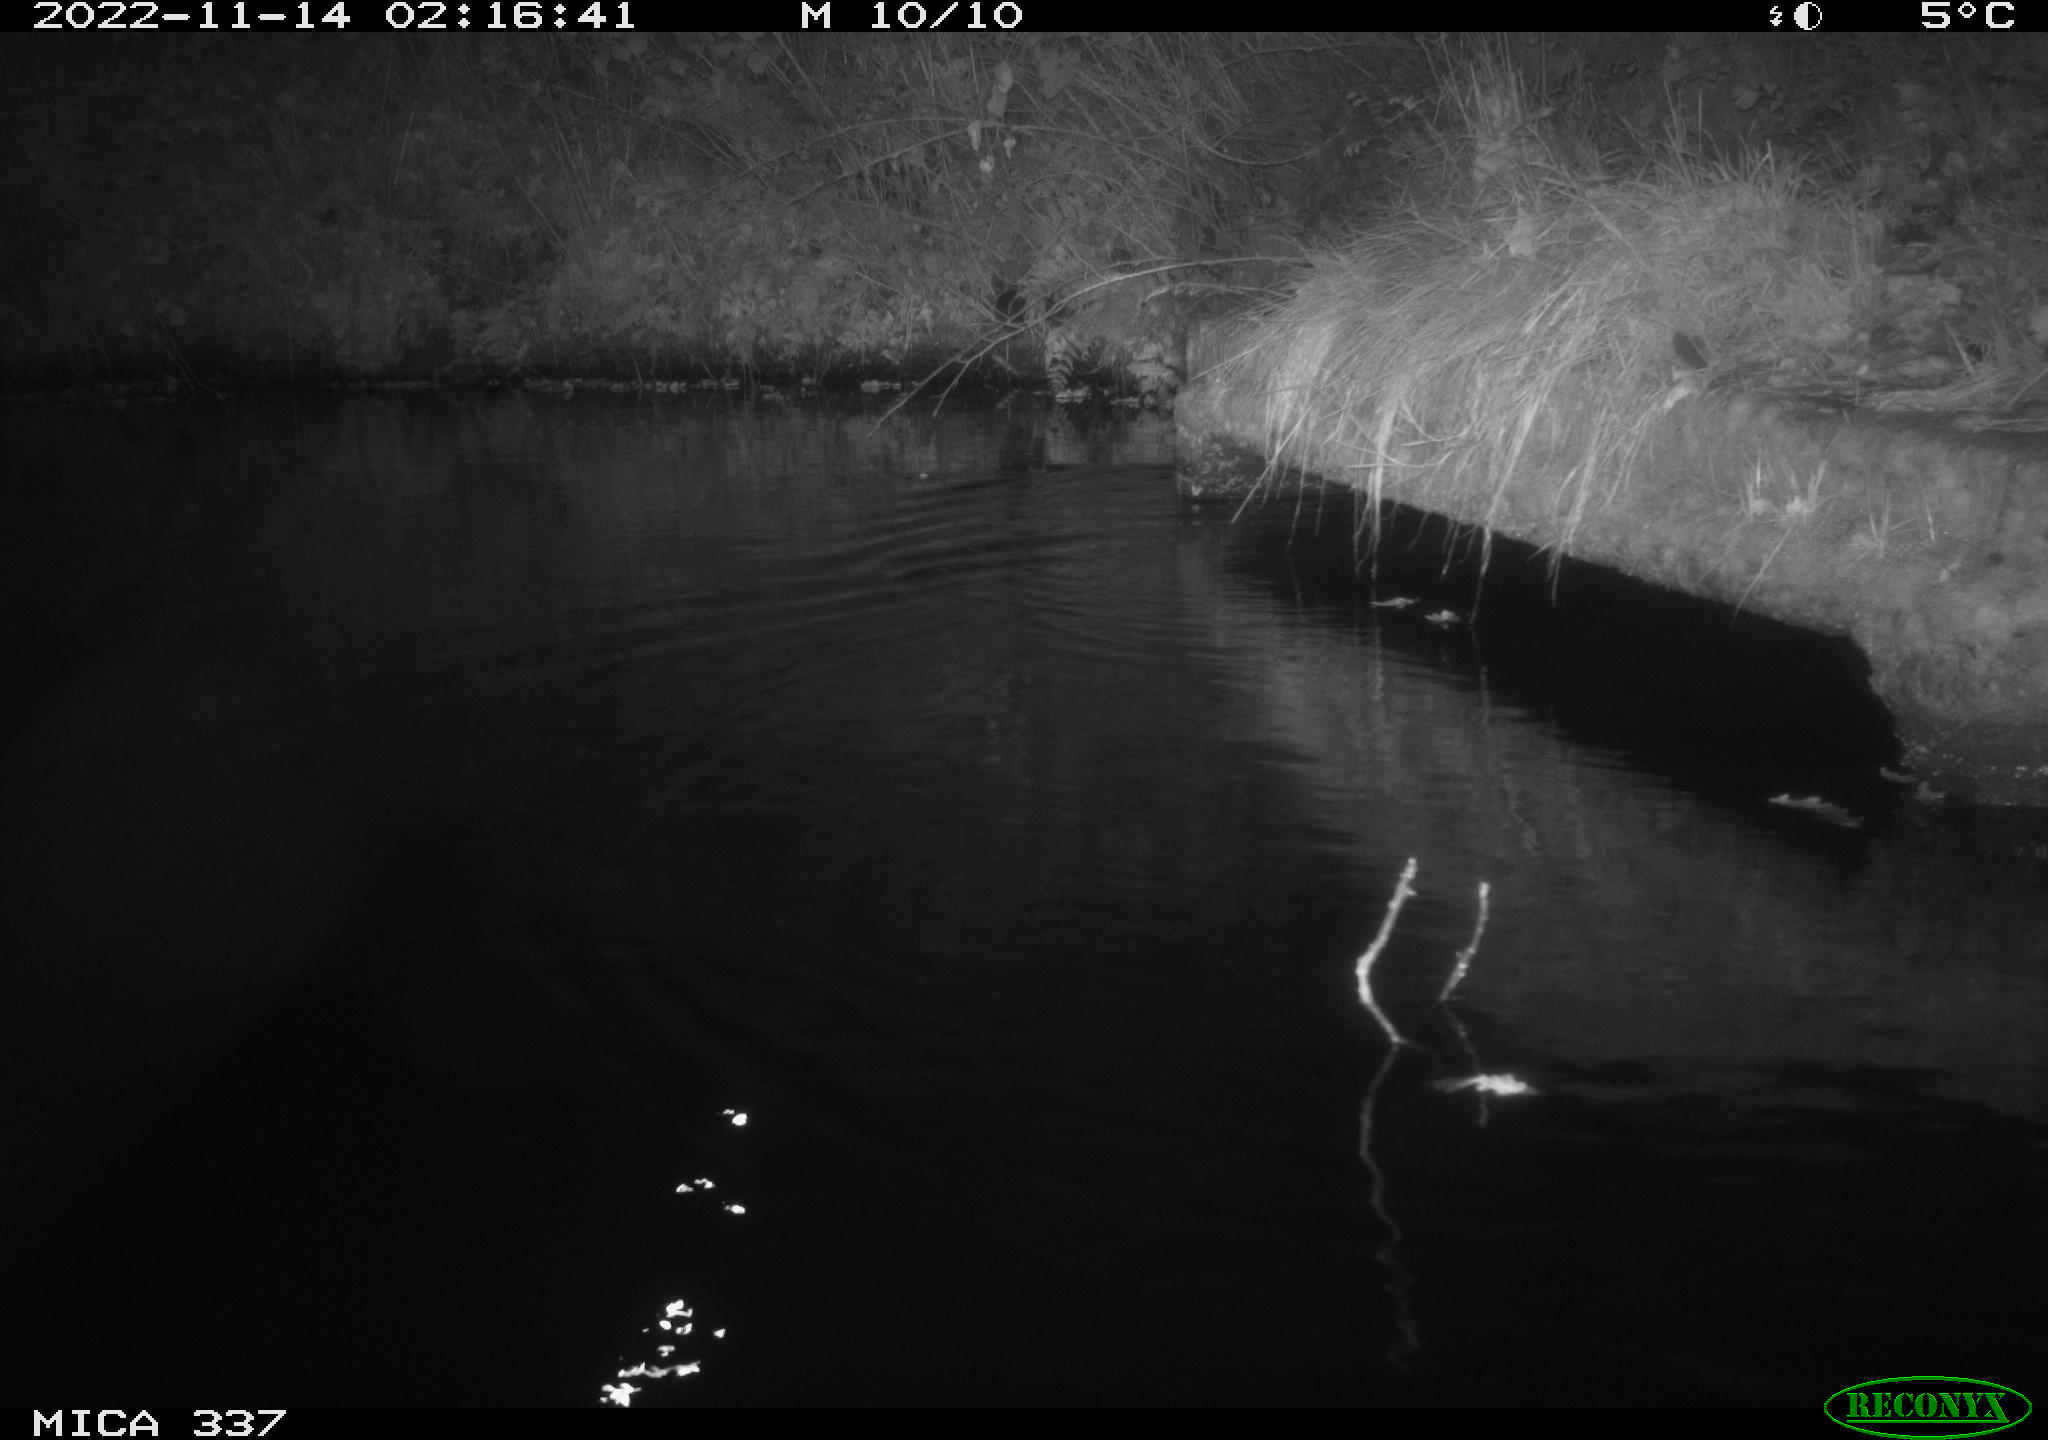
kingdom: Animalia
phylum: Chordata
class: Mammalia
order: Rodentia
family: Muridae
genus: Rattus
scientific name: Rattus norvegicus
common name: Brown rat
